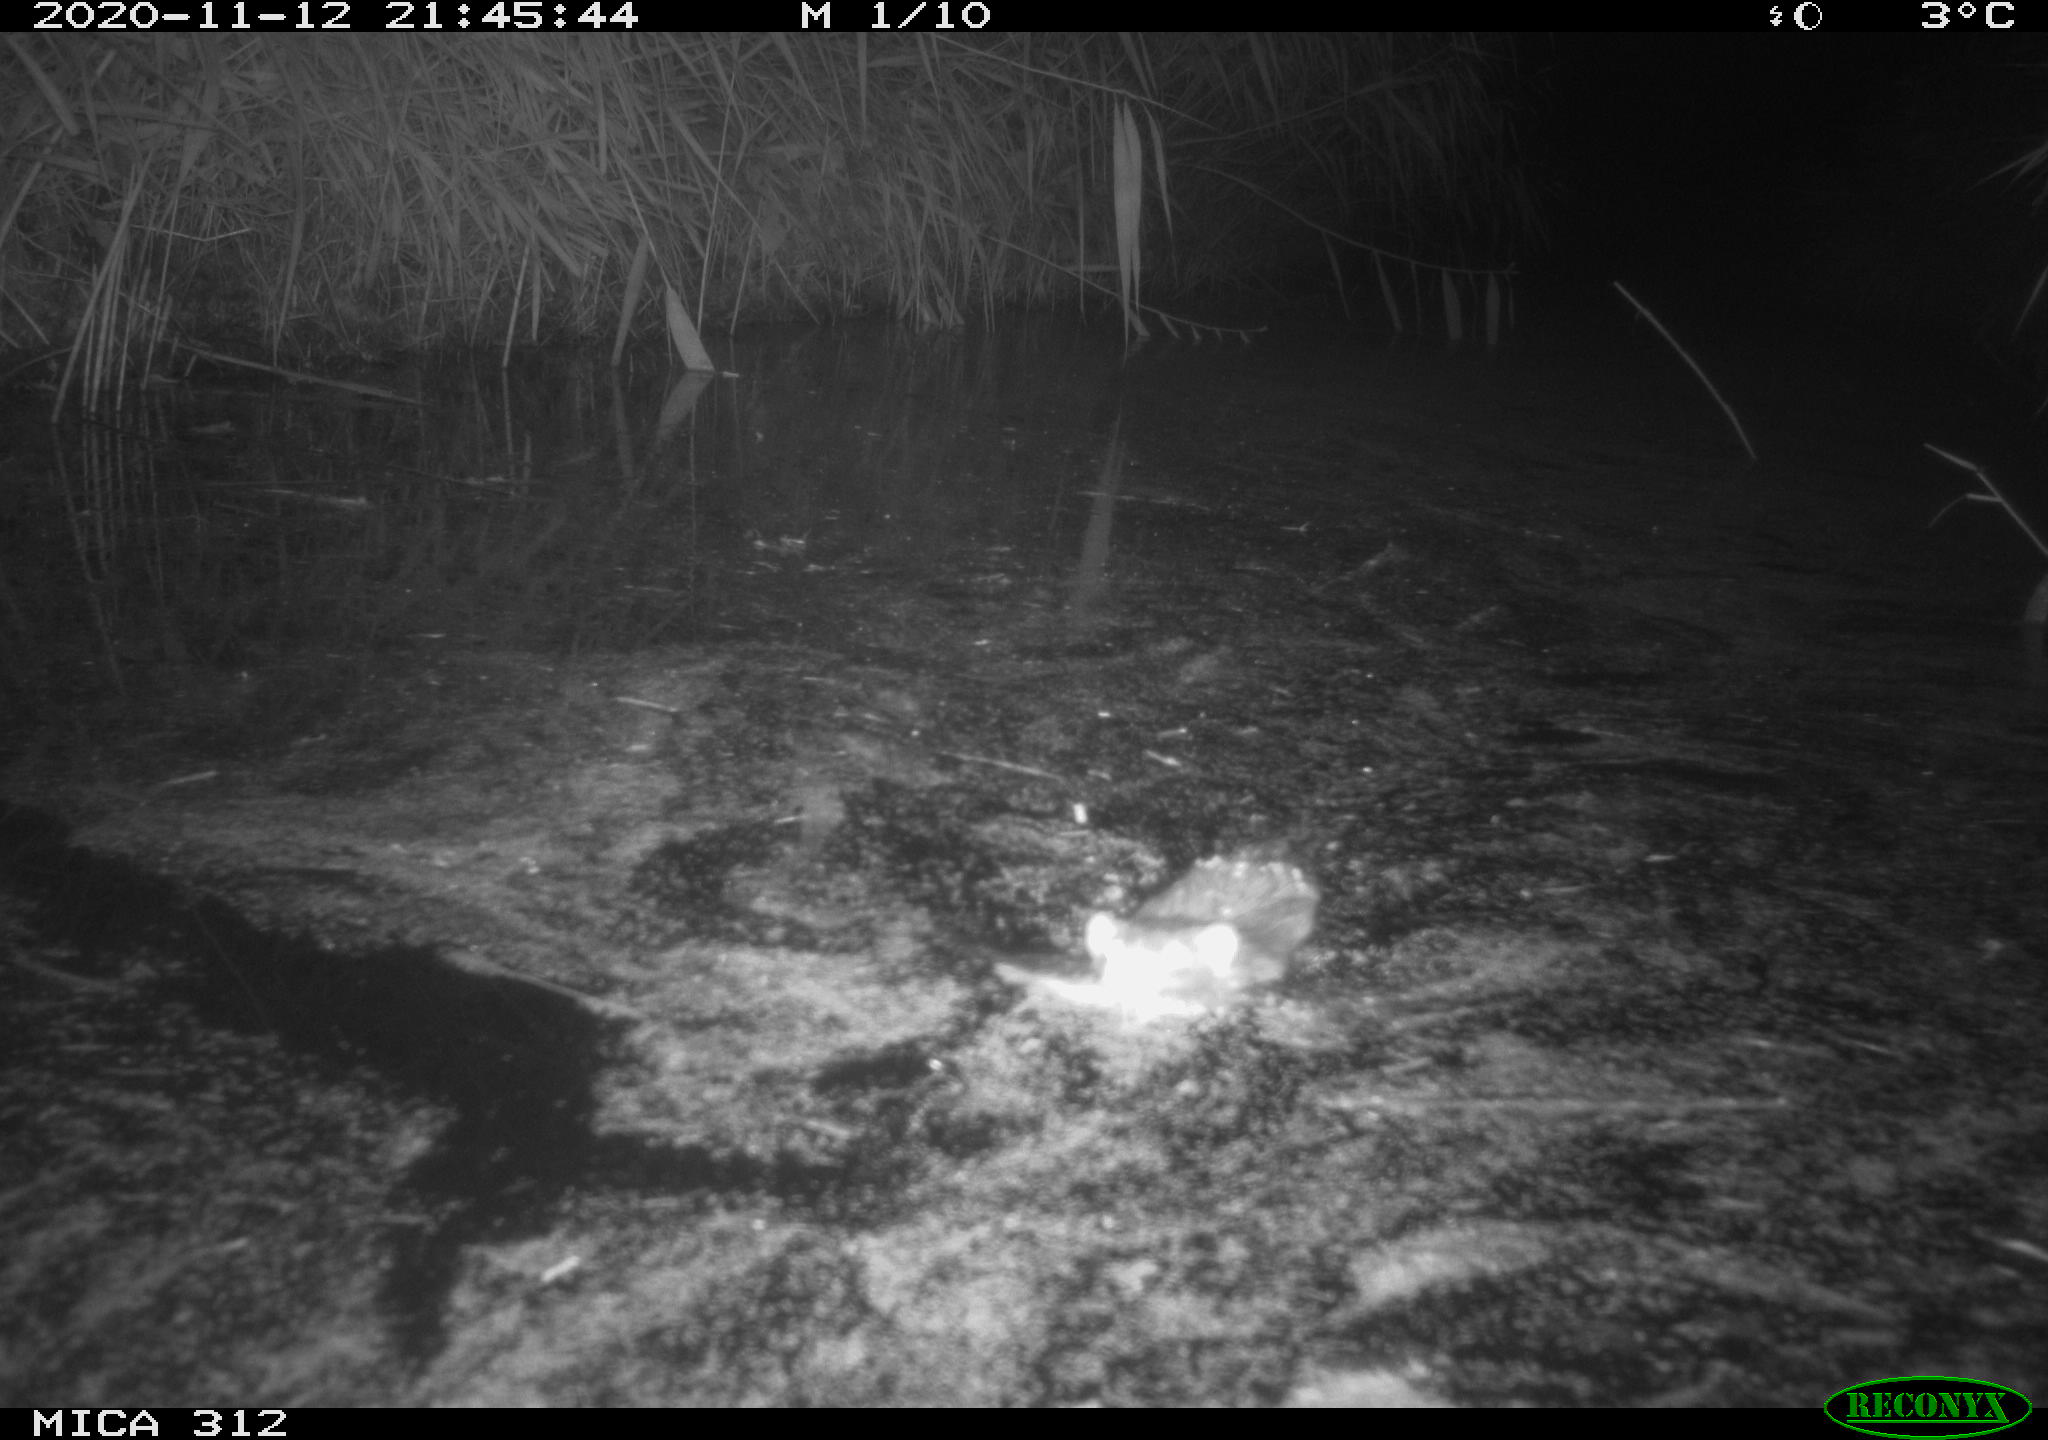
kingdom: Animalia
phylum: Chordata
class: Mammalia
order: Rodentia
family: Muridae
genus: Rattus
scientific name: Rattus norvegicus
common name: Brown rat
